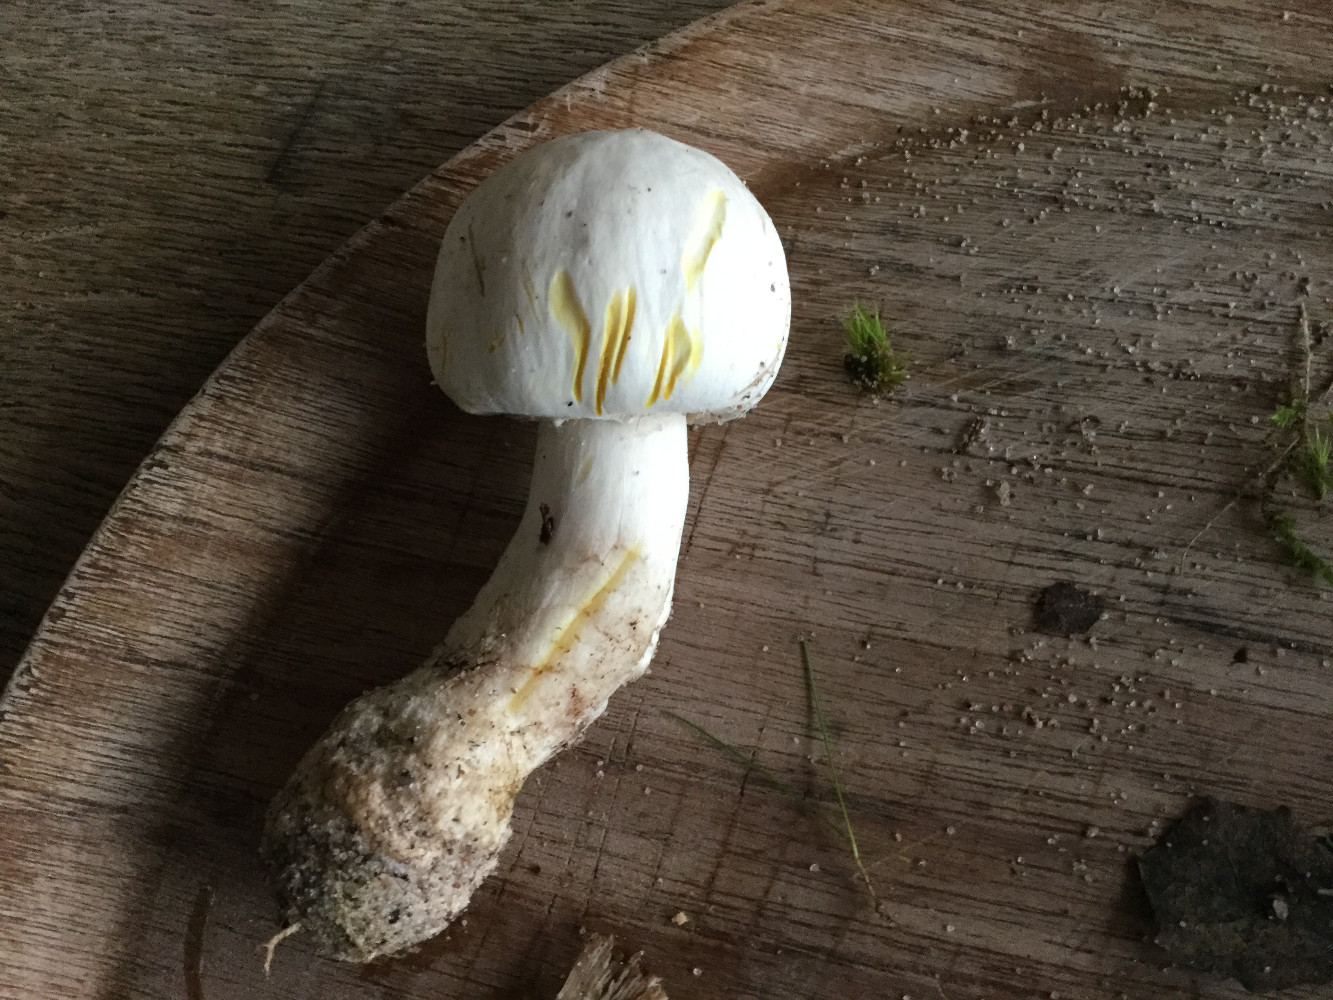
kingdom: Fungi
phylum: Basidiomycota
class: Agaricomycetes
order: Agaricales
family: Agaricaceae
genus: Agaricus
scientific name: Agaricus xanthodermus
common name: karbol-champignon
